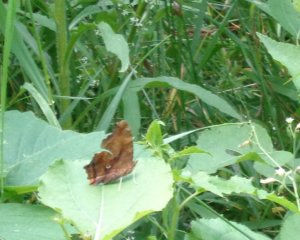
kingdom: Animalia
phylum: Arthropoda
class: Insecta
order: Lepidoptera
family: Nymphalidae
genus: Polygonia
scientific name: Polygonia comma
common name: Eastern Comma
